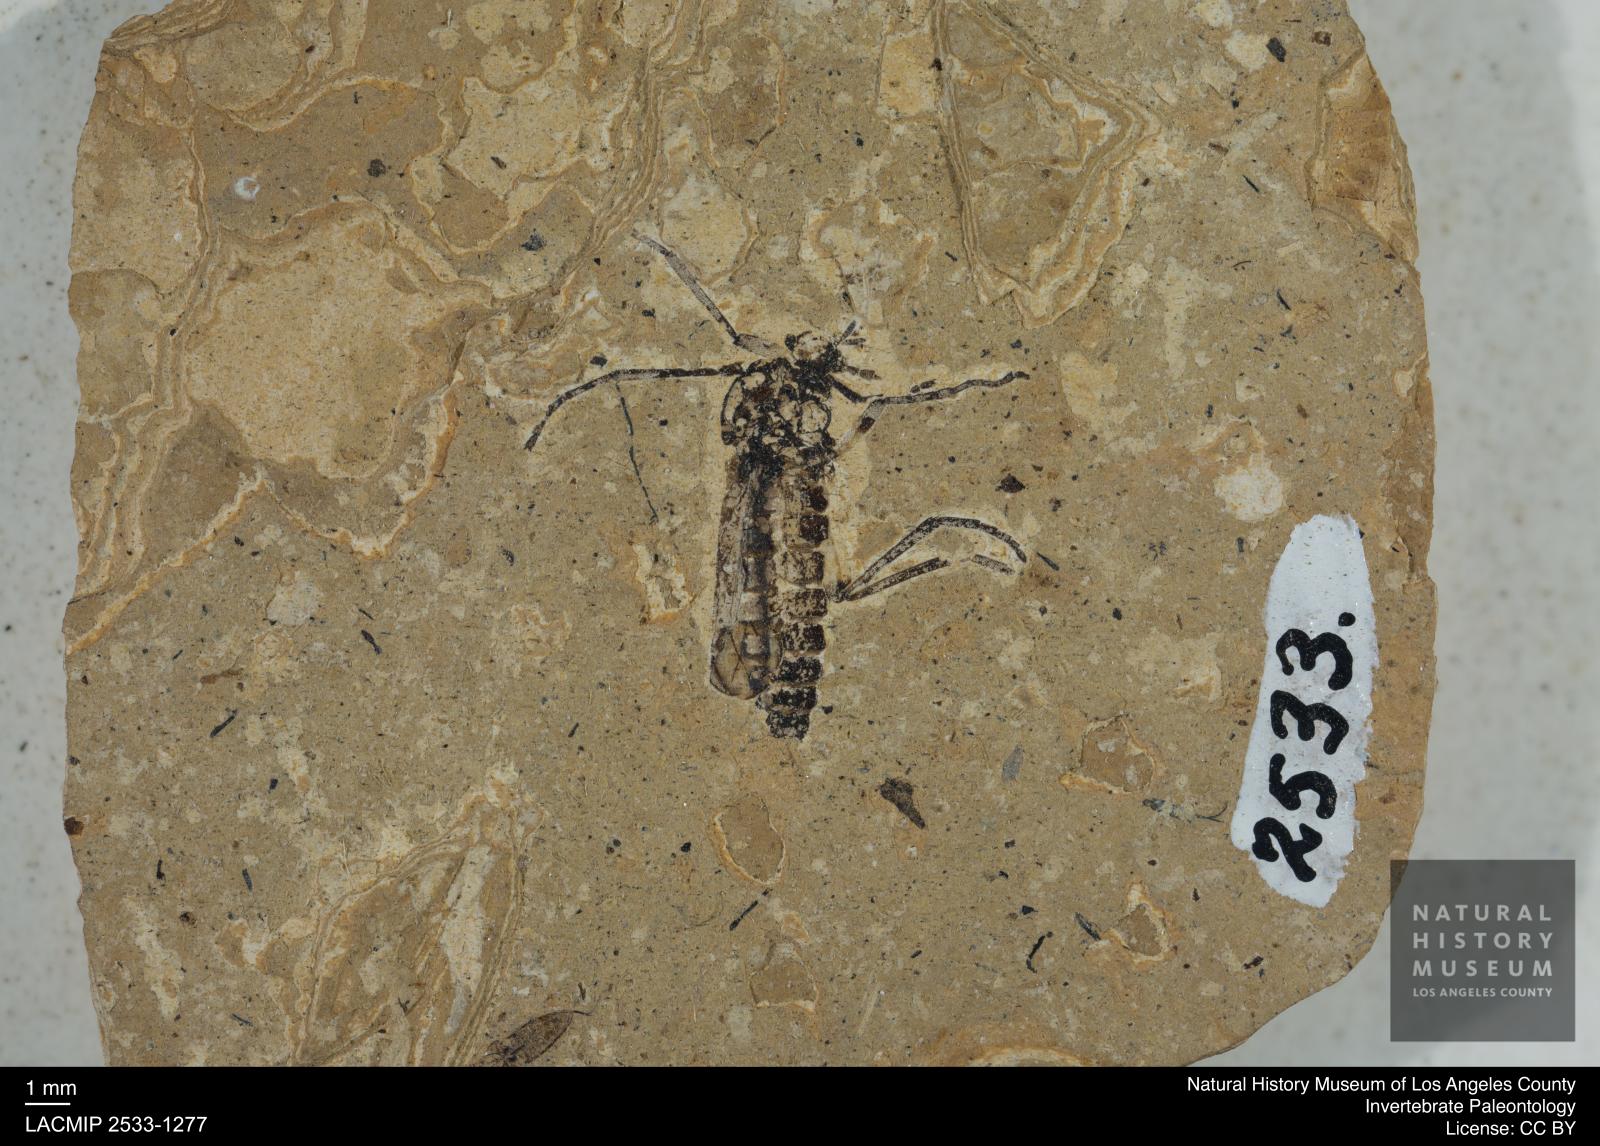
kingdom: Animalia
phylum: Arthropoda
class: Insecta
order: Diptera
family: Bibionidae
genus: Plecia
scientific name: Plecia
